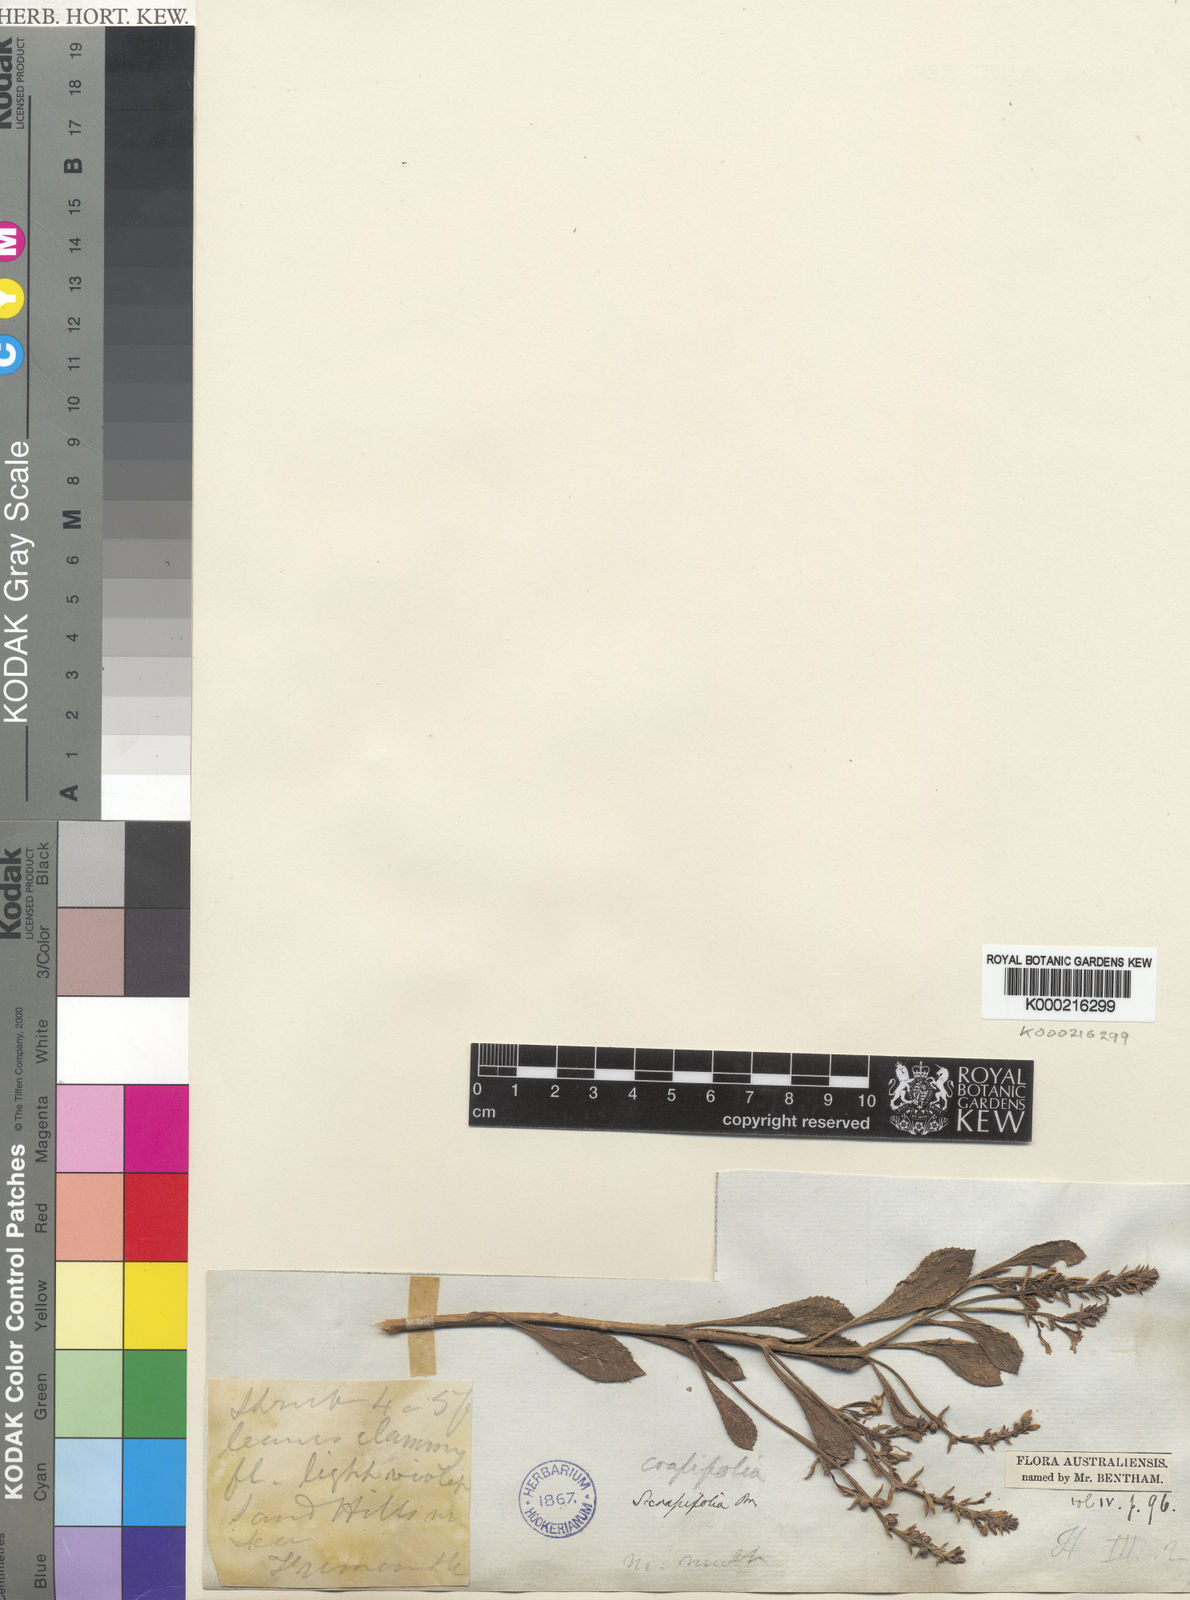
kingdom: Plantae
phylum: Tracheophyta
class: Magnoliopsida
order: Asterales
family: Goodeniaceae
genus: Scaevola
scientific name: Scaevola crassifolia
